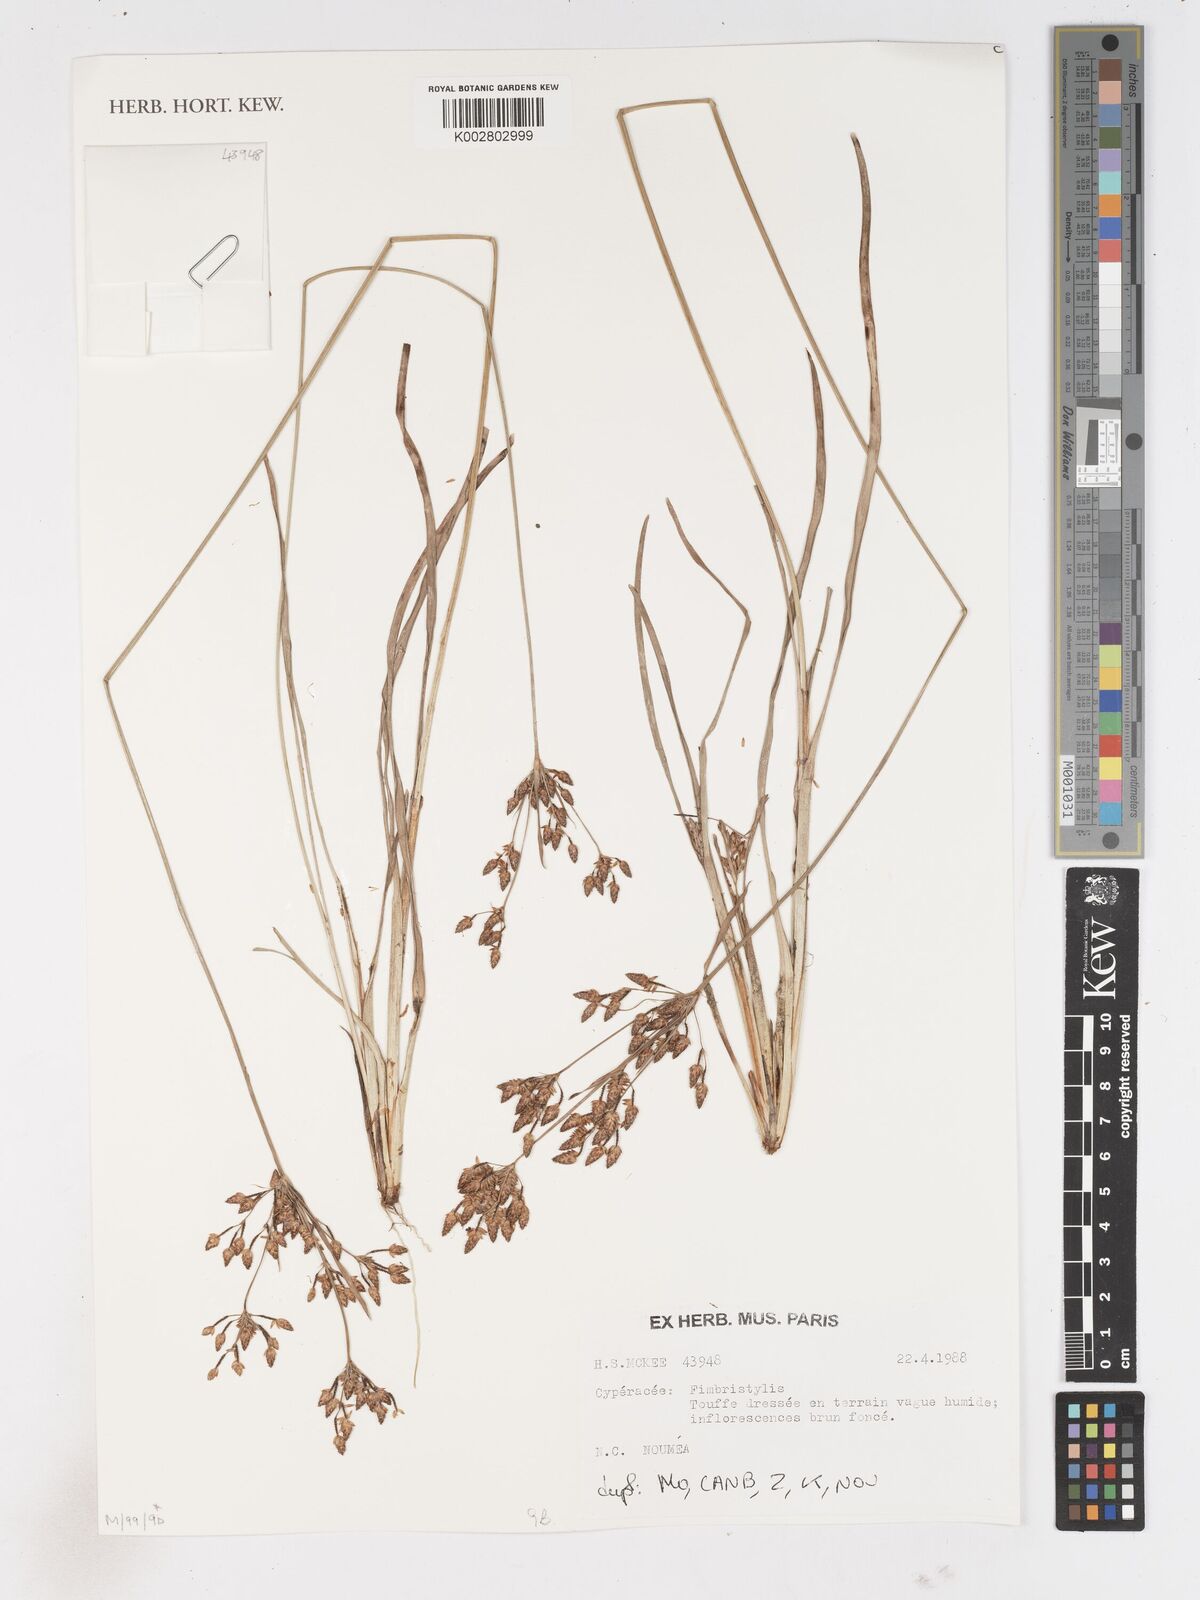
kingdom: Plantae
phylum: Tracheophyta
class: Liliopsida
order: Poales
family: Cyperaceae
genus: Fimbristylis
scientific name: Fimbristylis dichotoma
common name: Forked fimbry
